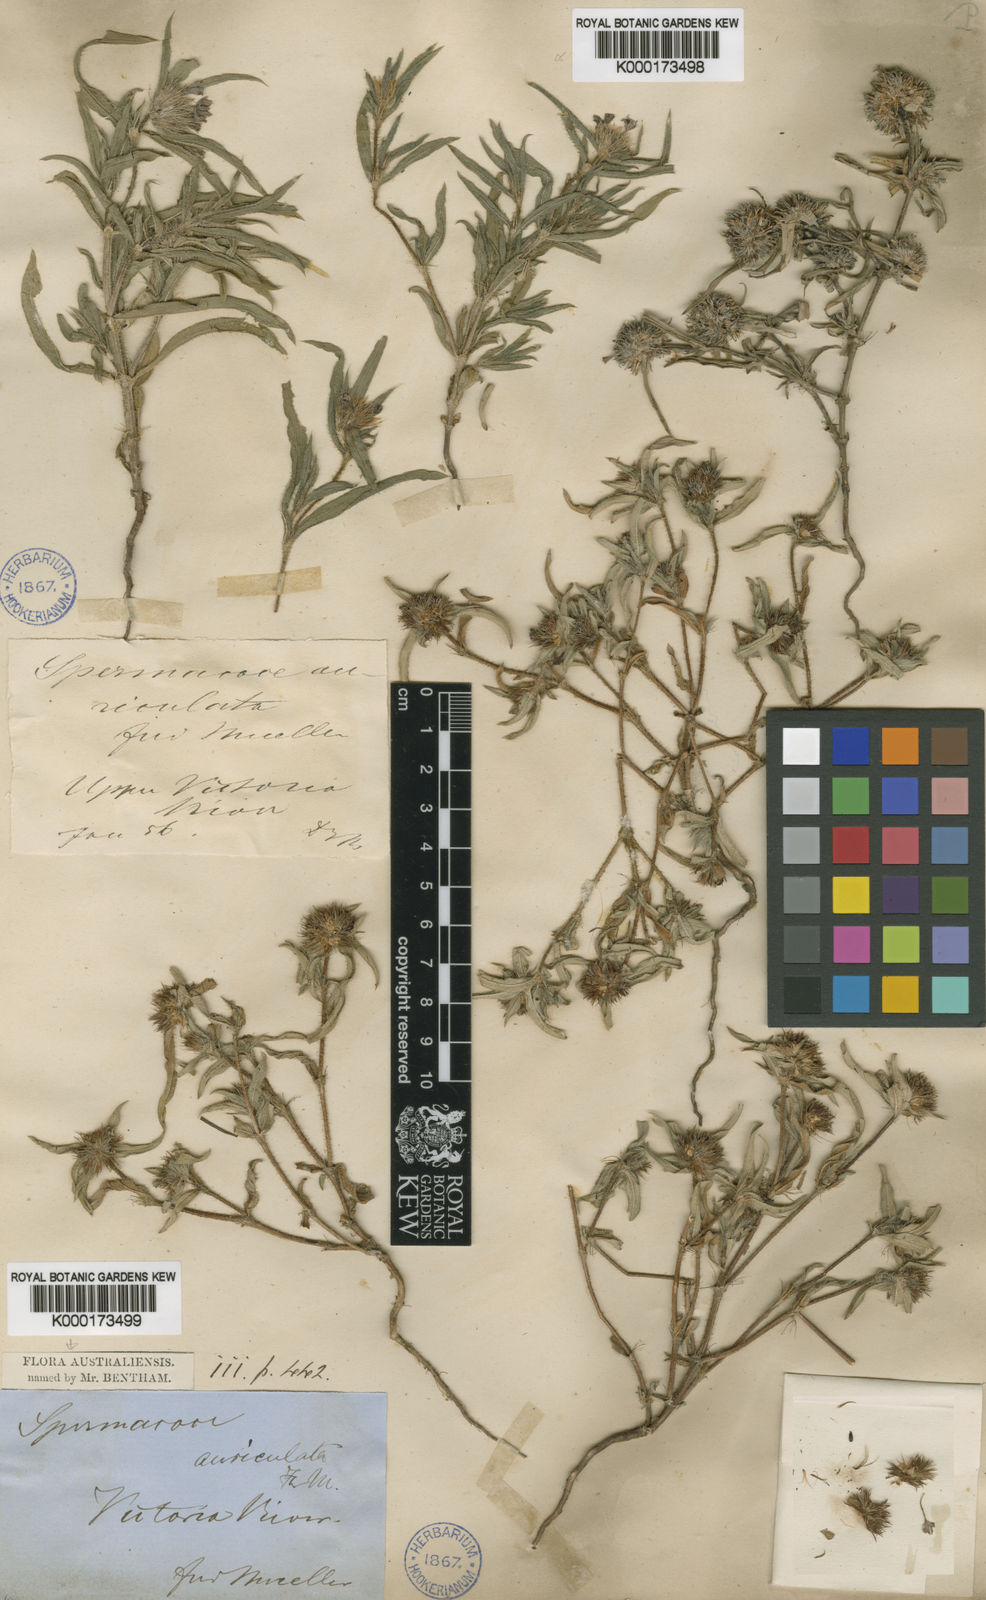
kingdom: Plantae
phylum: Tracheophyta
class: Magnoliopsida
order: Gentianales
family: Rubiaceae
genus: Spermacoce
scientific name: Spermacoce auriculata
